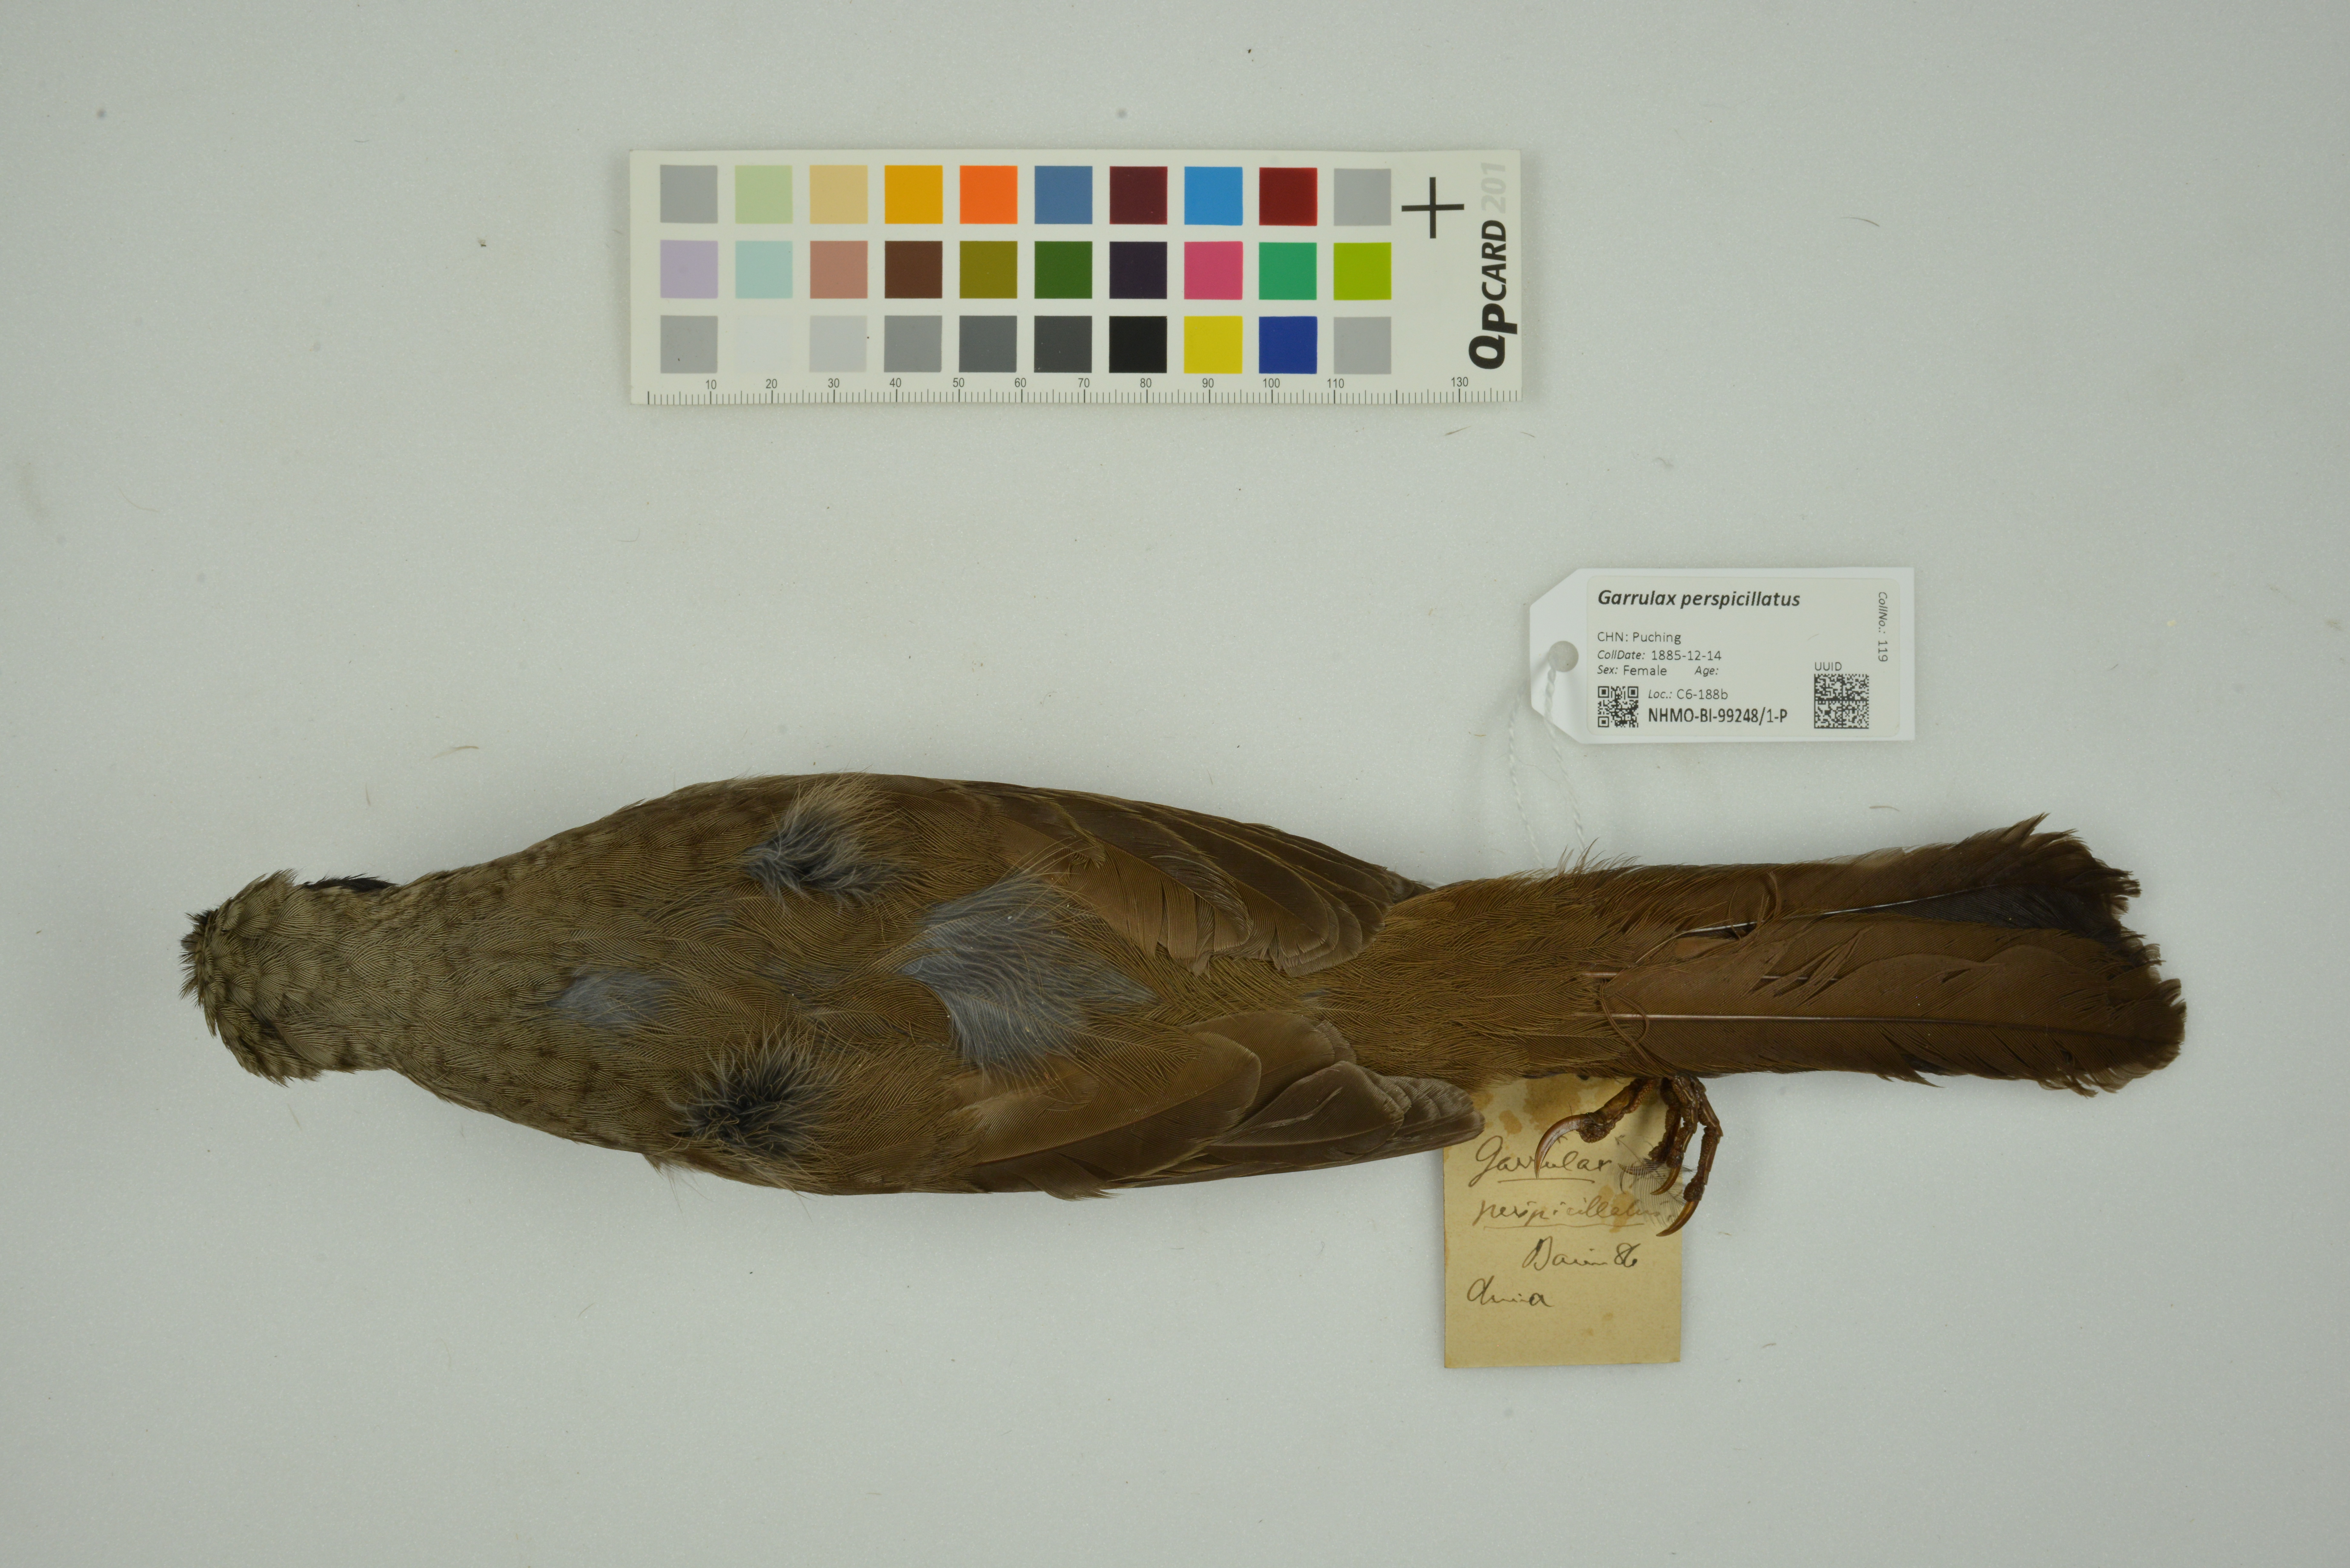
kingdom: Animalia
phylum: Chordata
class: Aves
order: Passeriformes
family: Leiothrichidae
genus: Garrulax
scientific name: Garrulax perspicillatus
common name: Masked laughingthrush
